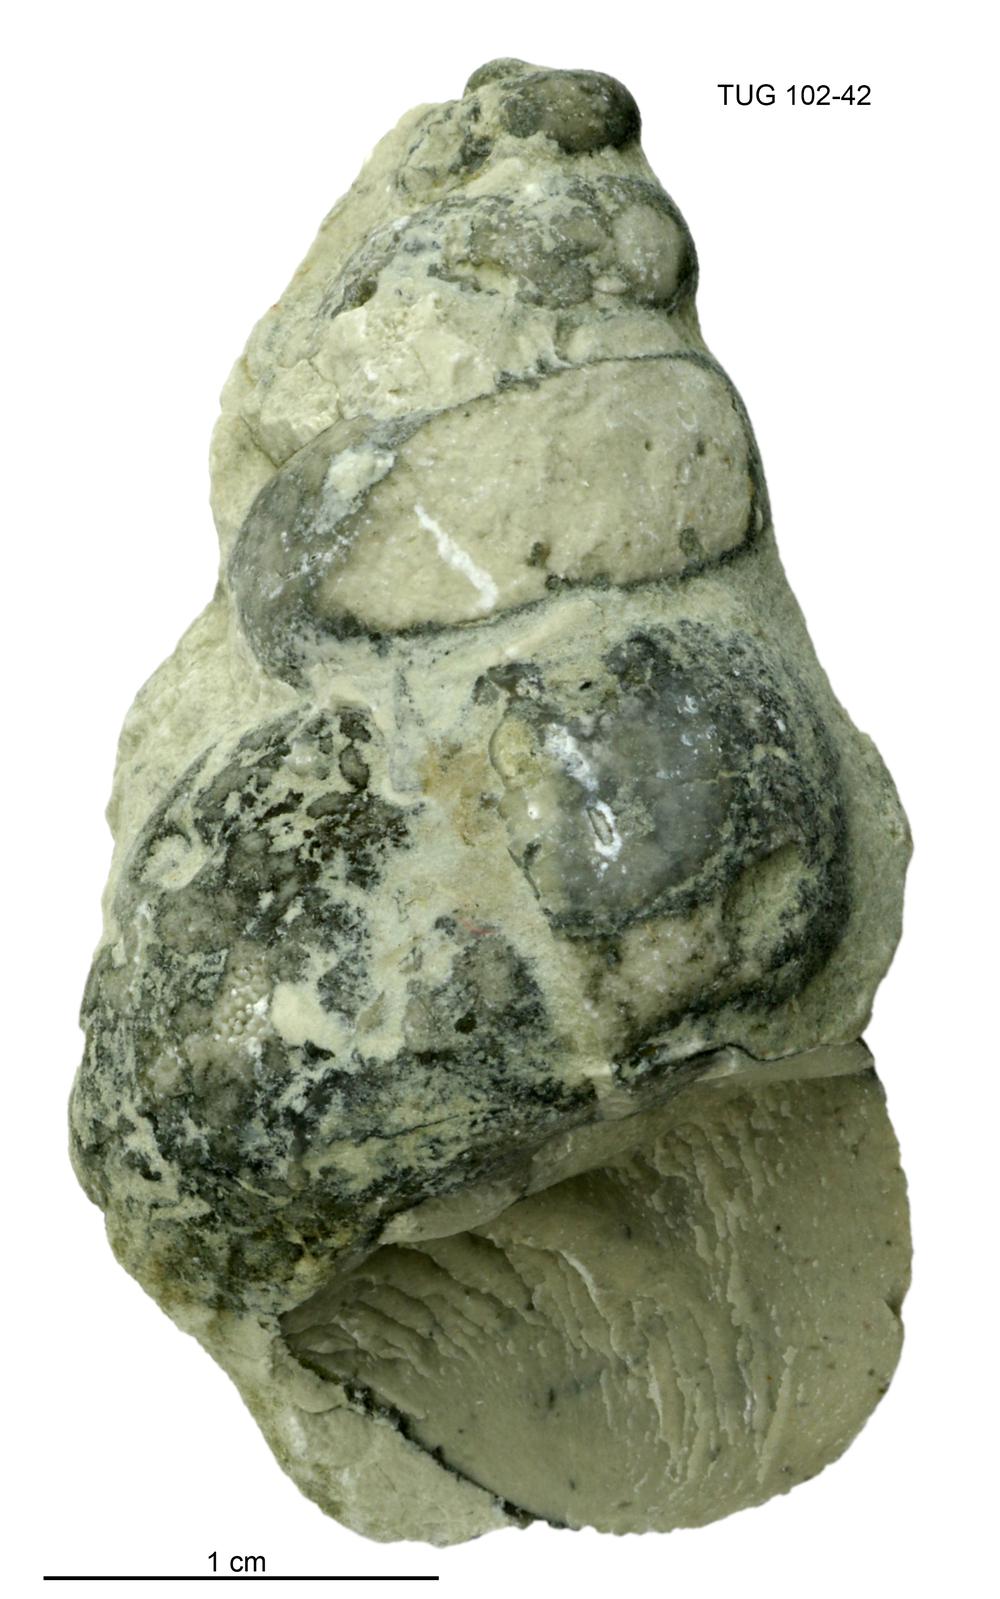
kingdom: Animalia
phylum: Mollusca
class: Gastropoda
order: Pleurotomariida
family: Murchisoniidae
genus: Murchisonia
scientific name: Murchisonia insignis
